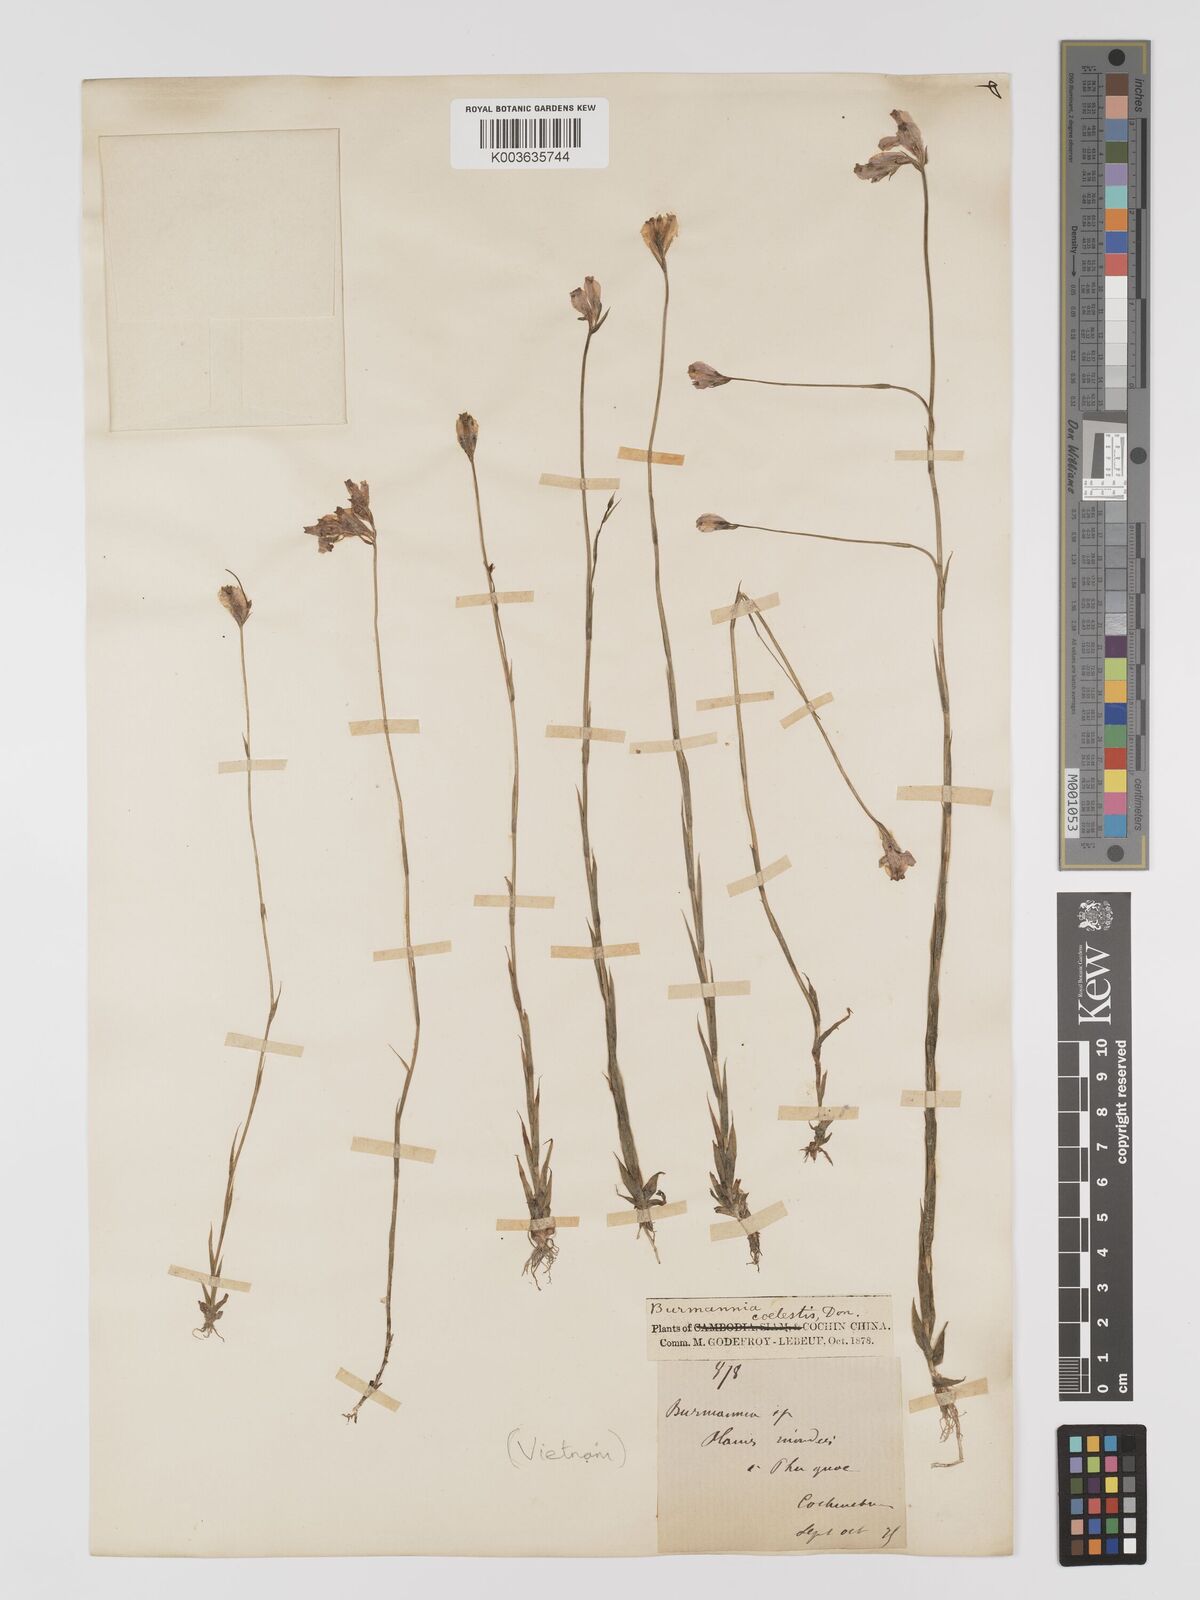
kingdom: Plantae
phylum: Tracheophyta
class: Liliopsida
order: Dioscoreales
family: Burmanniaceae
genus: Burmannia
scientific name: Burmannia coelestis
